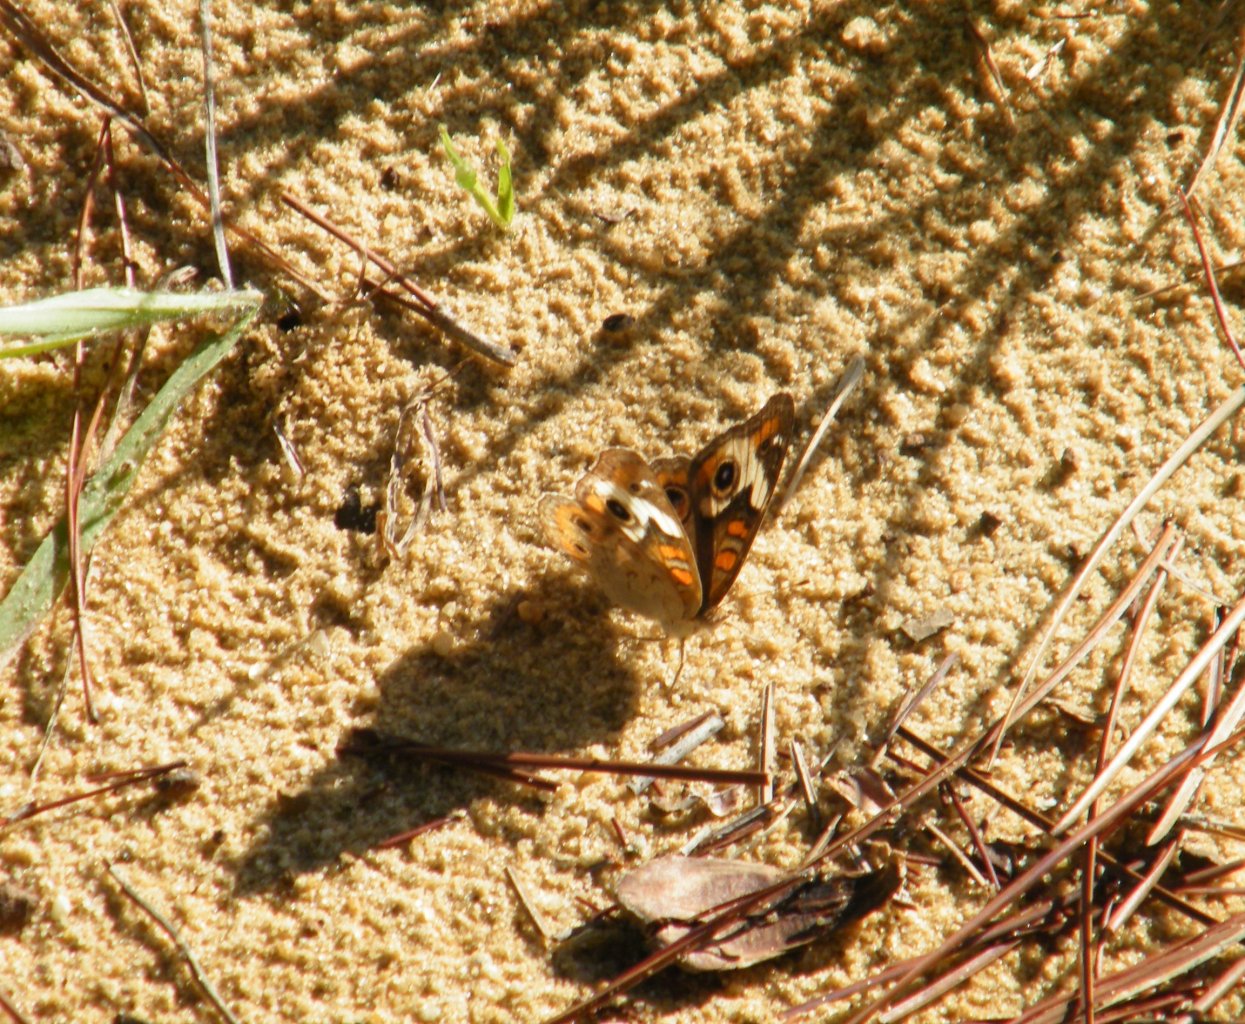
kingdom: Animalia
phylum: Arthropoda
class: Insecta
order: Lepidoptera
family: Nymphalidae
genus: Junonia
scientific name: Junonia coenia
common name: Common Buckeye
